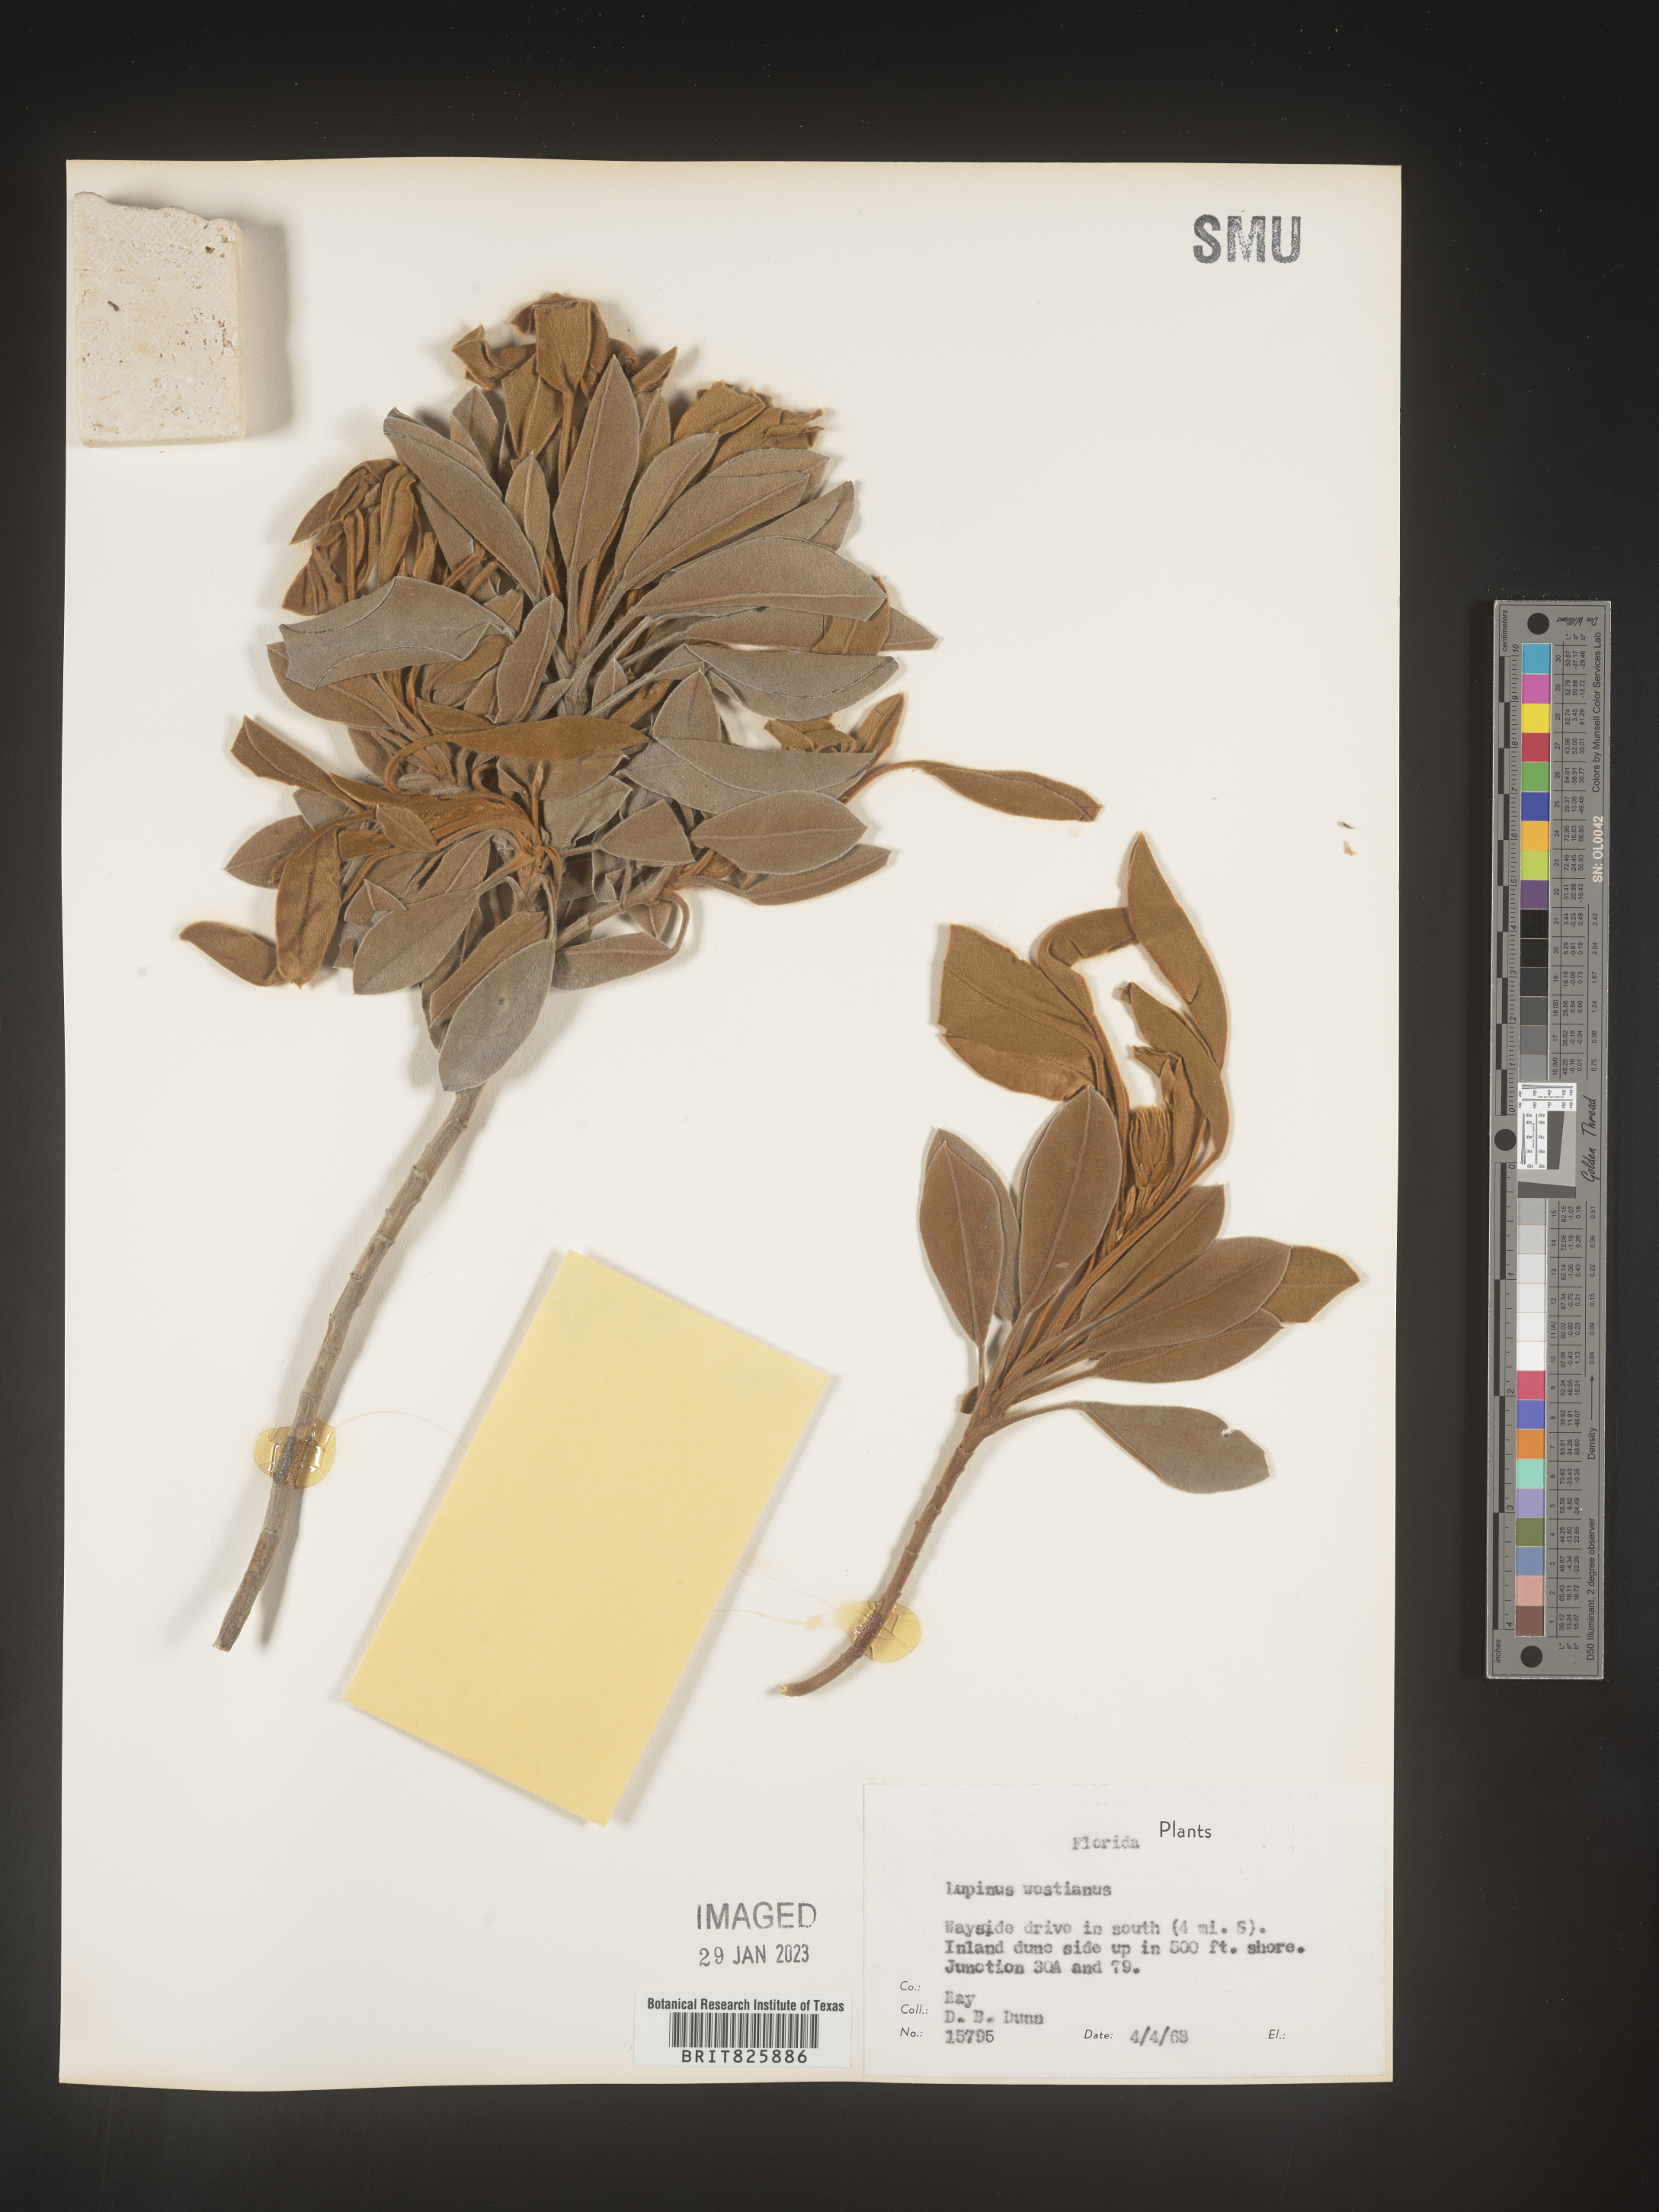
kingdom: Plantae
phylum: Tracheophyta
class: Magnoliopsida
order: Fabales
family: Fabaceae
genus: Lupinus
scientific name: Lupinus
